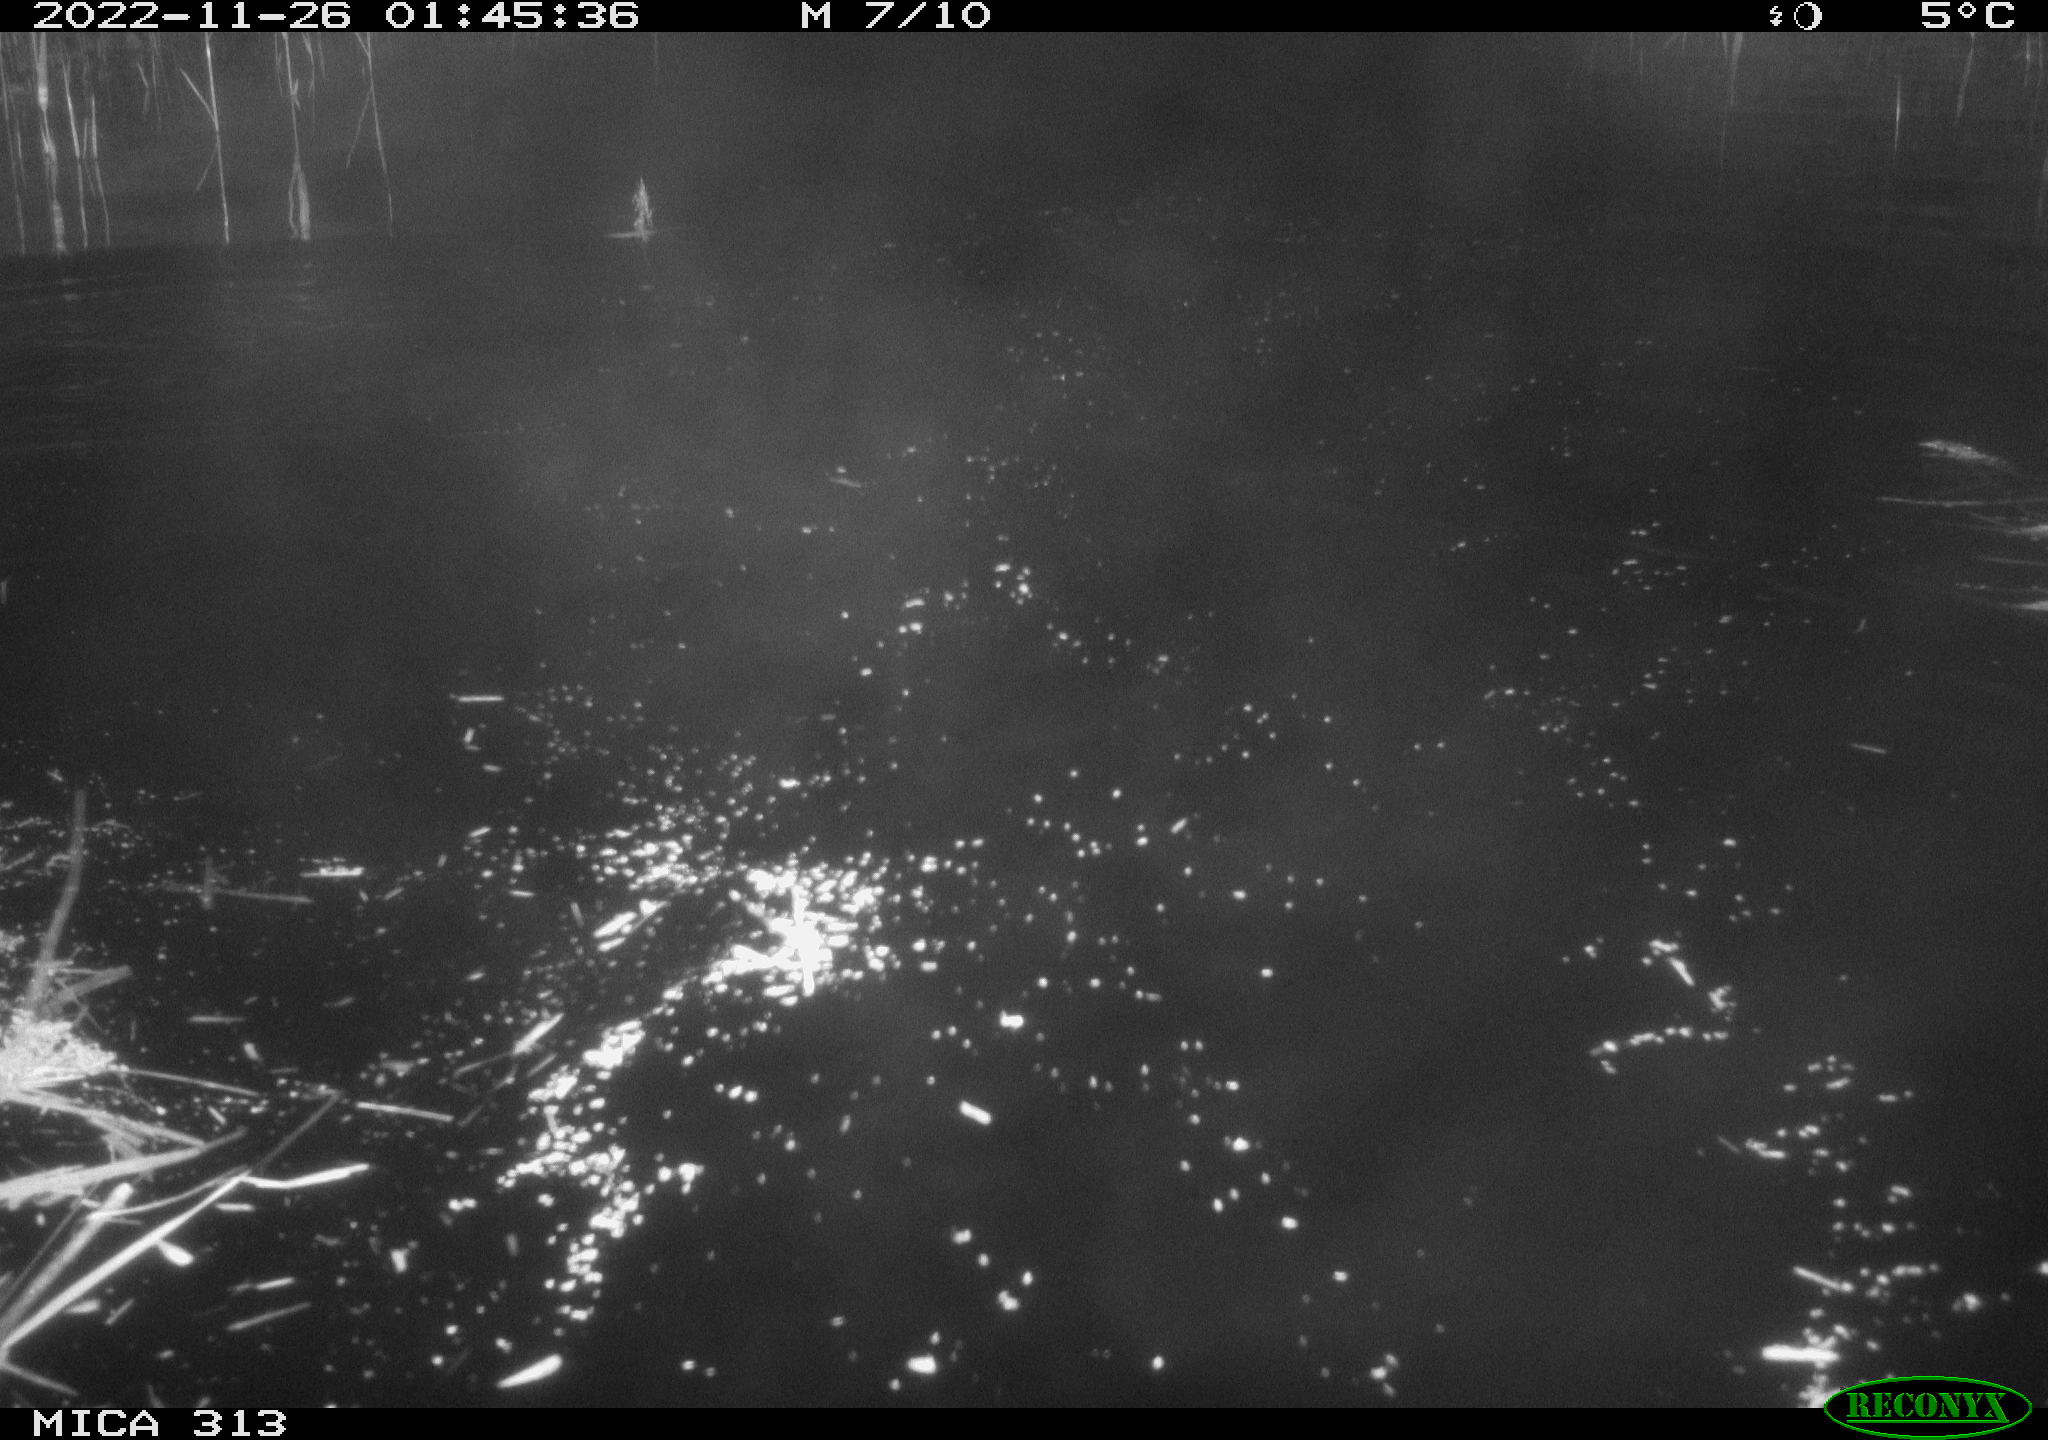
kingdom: Animalia
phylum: Chordata
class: Mammalia
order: Rodentia
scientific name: Rodentia
